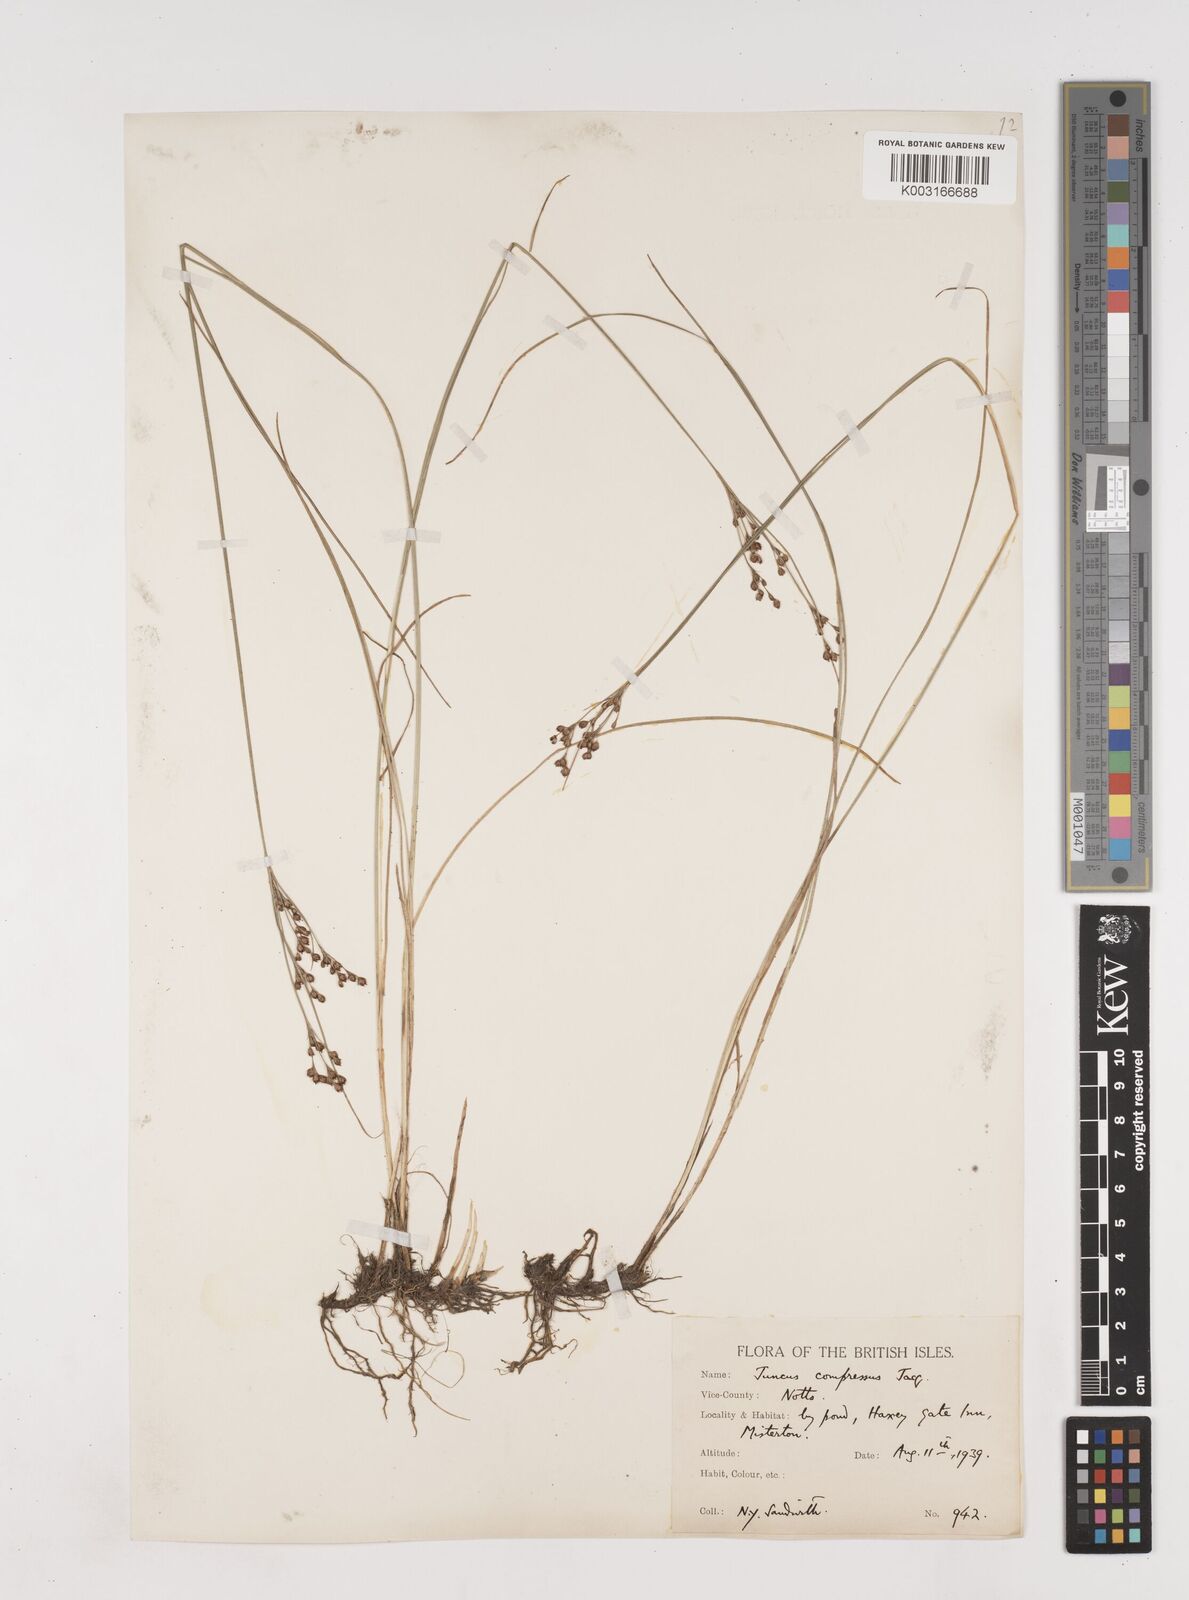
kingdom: Plantae
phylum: Tracheophyta
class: Liliopsida
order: Poales
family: Juncaceae
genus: Juncus
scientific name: Juncus compressus
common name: Round-fruited rush
